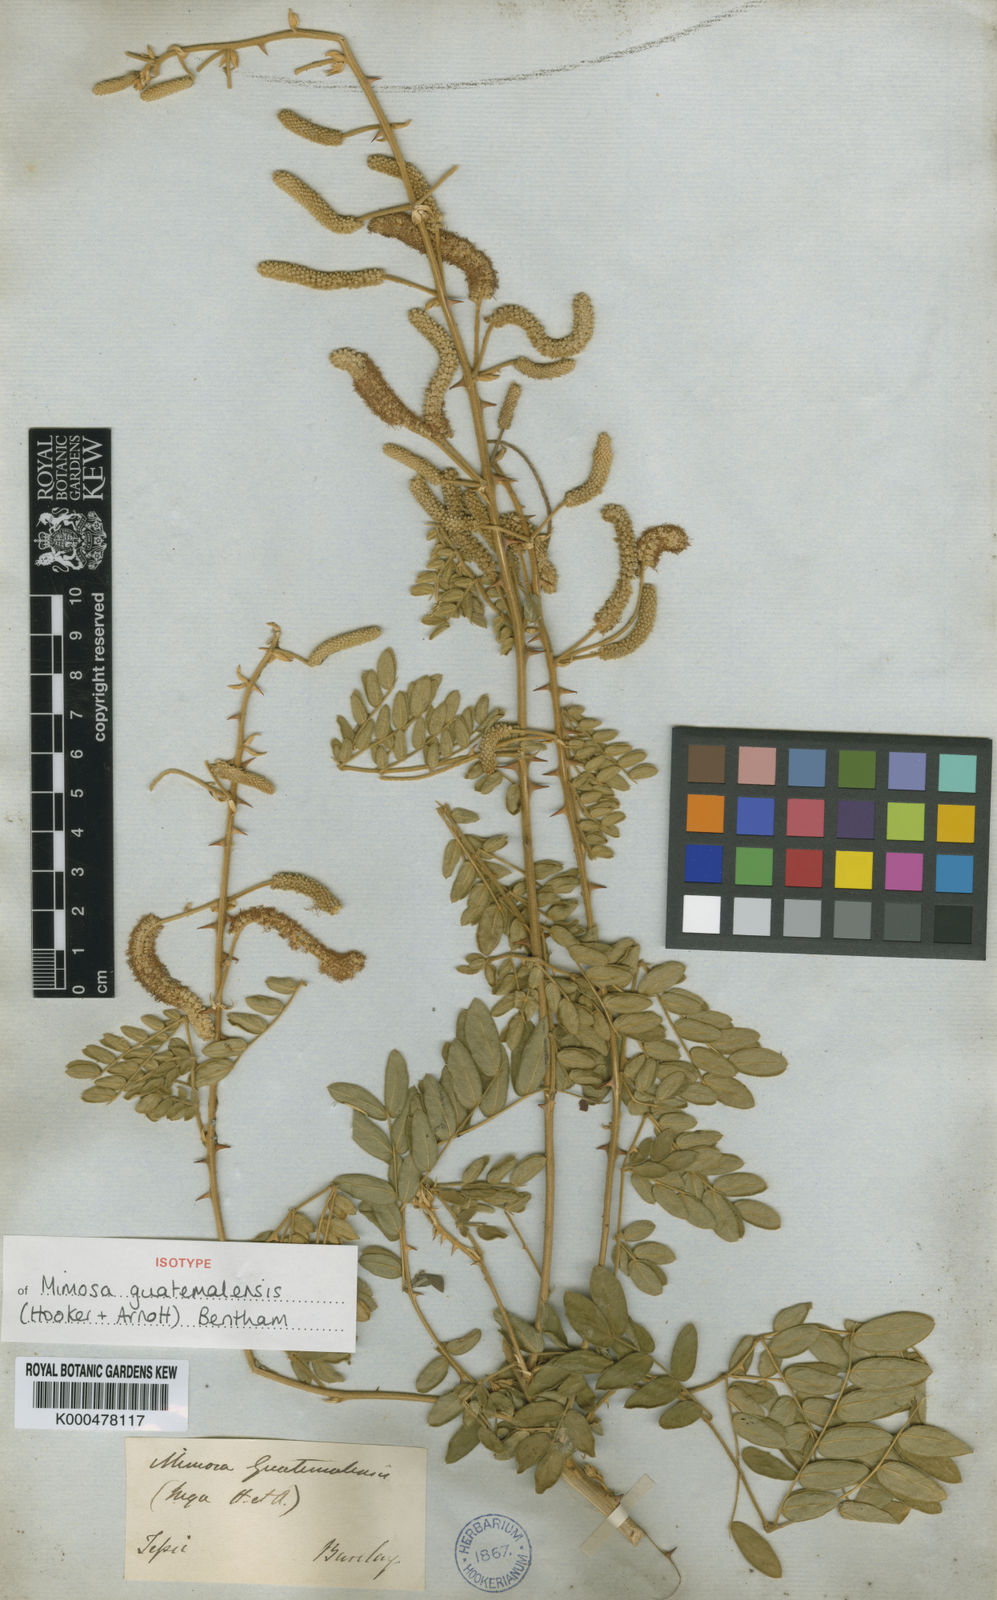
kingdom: Plantae
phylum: Tracheophyta
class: Magnoliopsida
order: Fabales
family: Fabaceae
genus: Mimosa
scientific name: Mimosa guatemalensis
